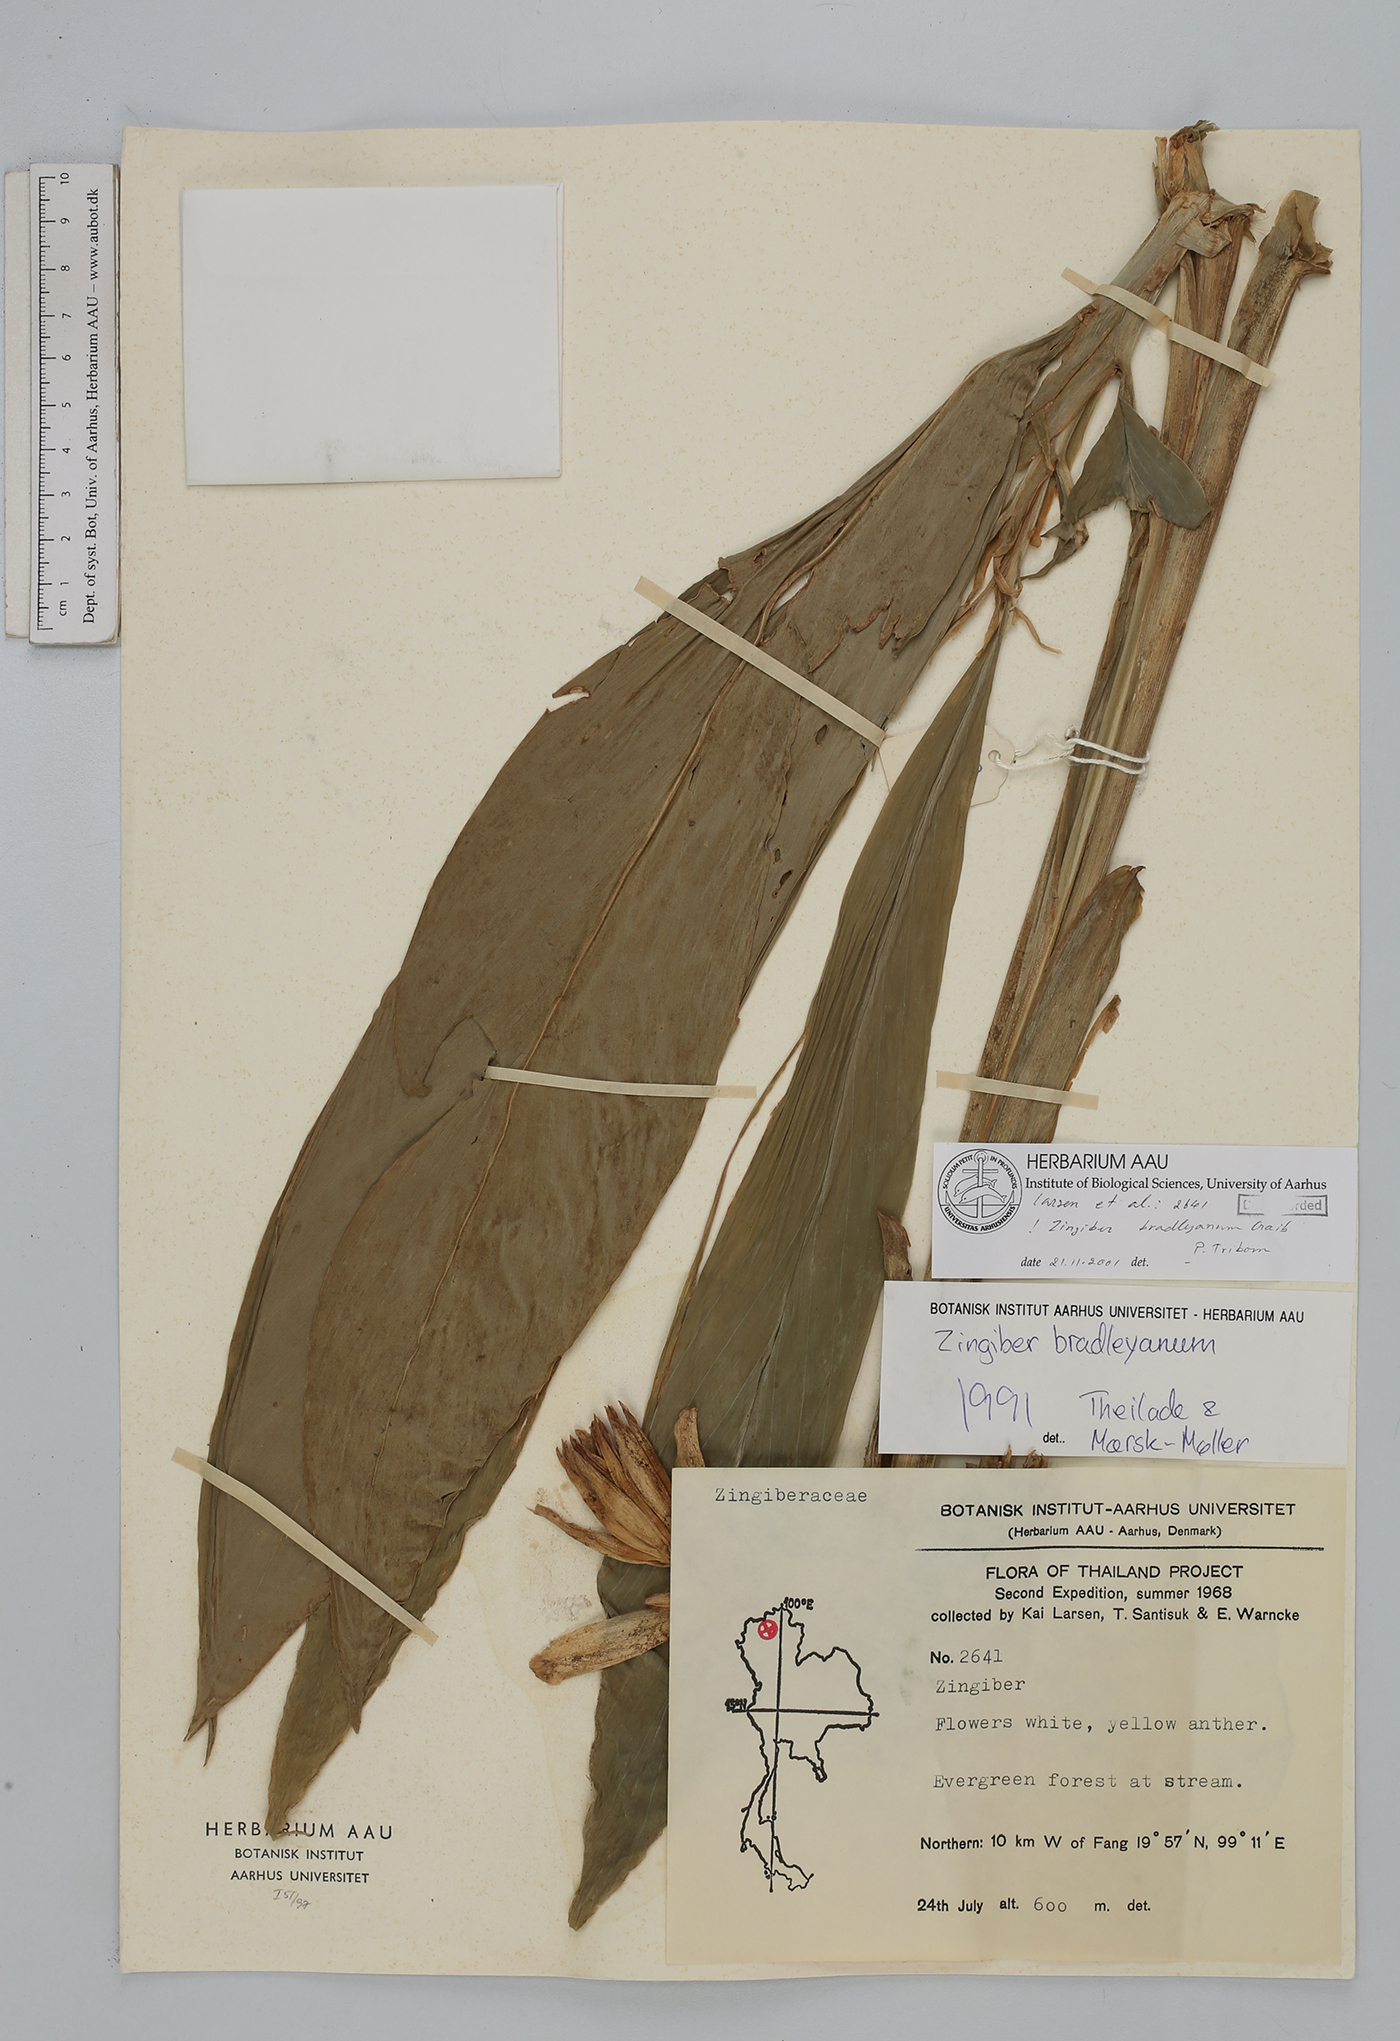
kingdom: Plantae
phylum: Tracheophyta
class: Liliopsida
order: Zingiberales
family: Zingiberaceae
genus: Zingiber
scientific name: Zingiber bradleyanum
